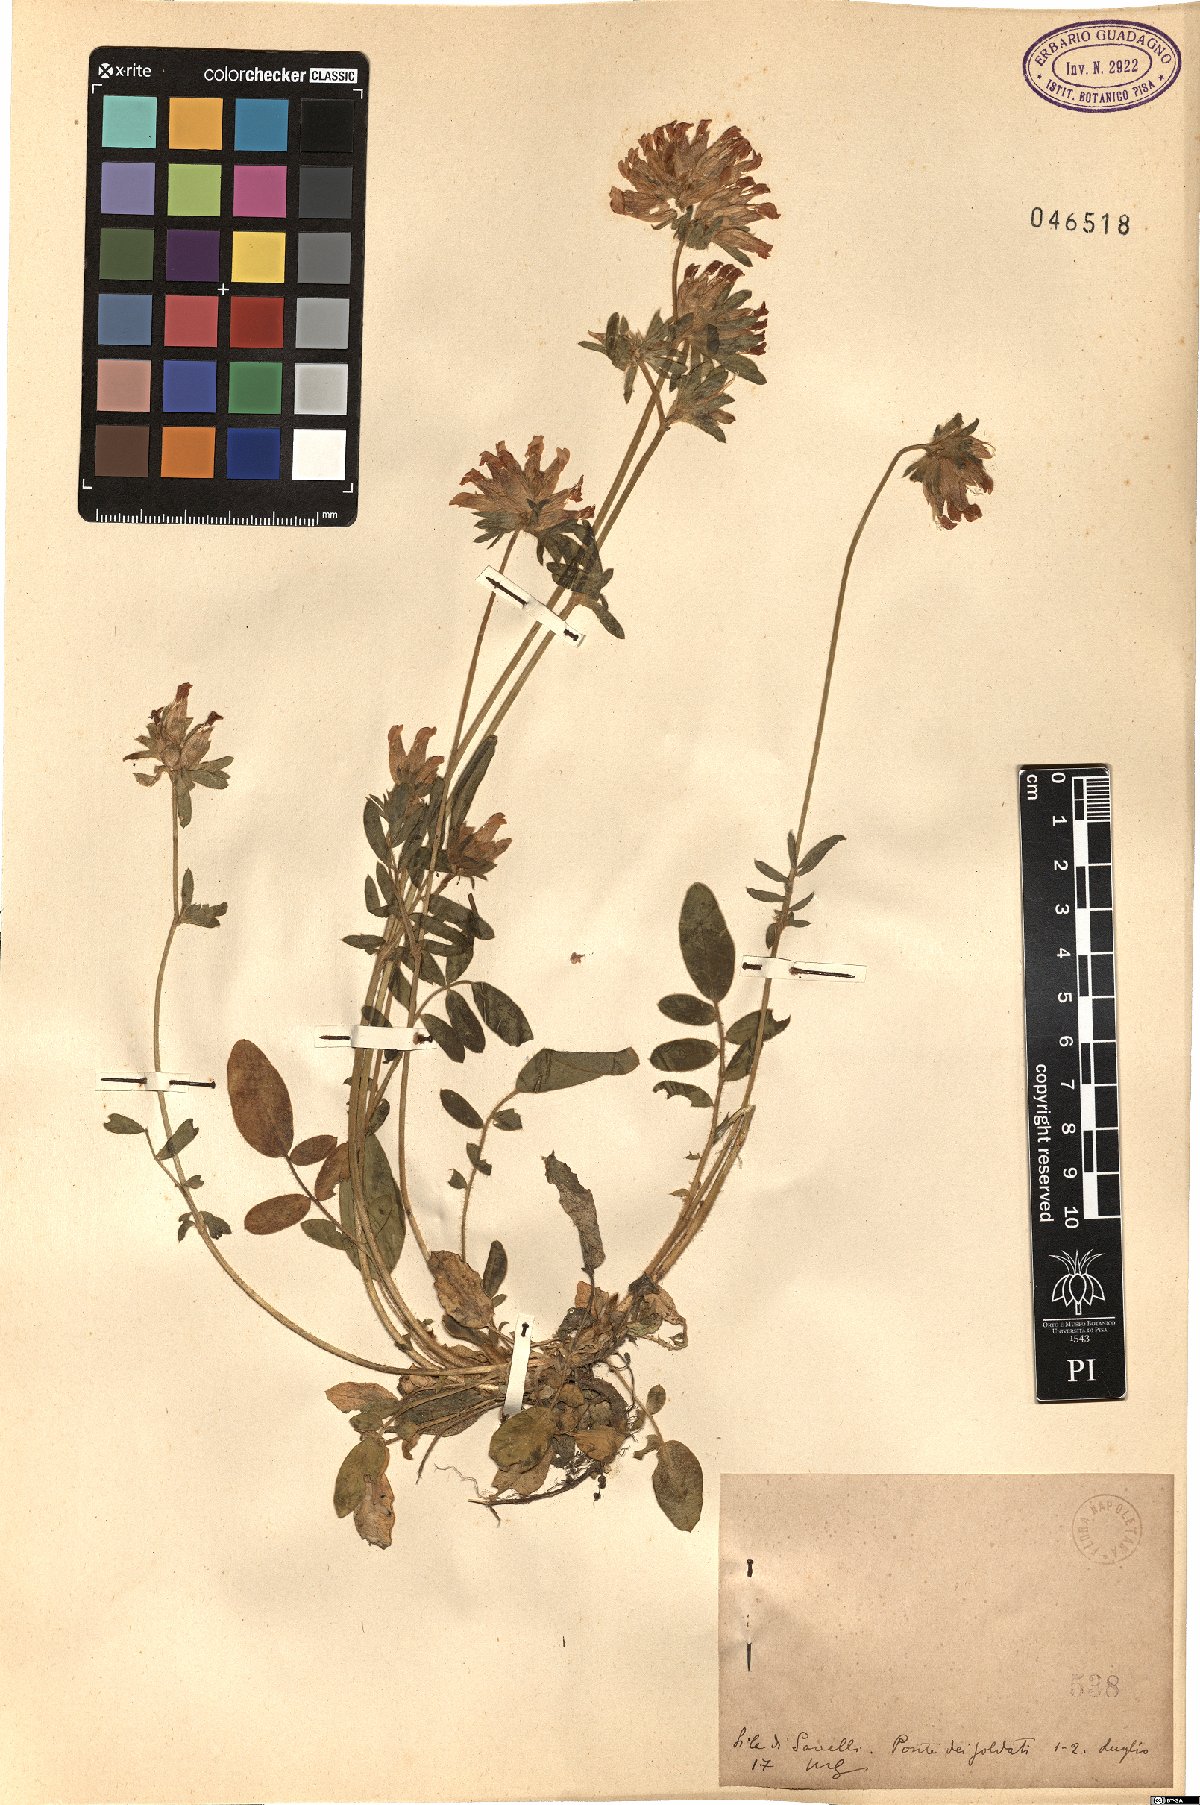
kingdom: Plantae
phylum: Tracheophyta
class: Magnoliopsida
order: Fabales
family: Fabaceae
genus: Anthyllis
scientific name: Anthyllis
